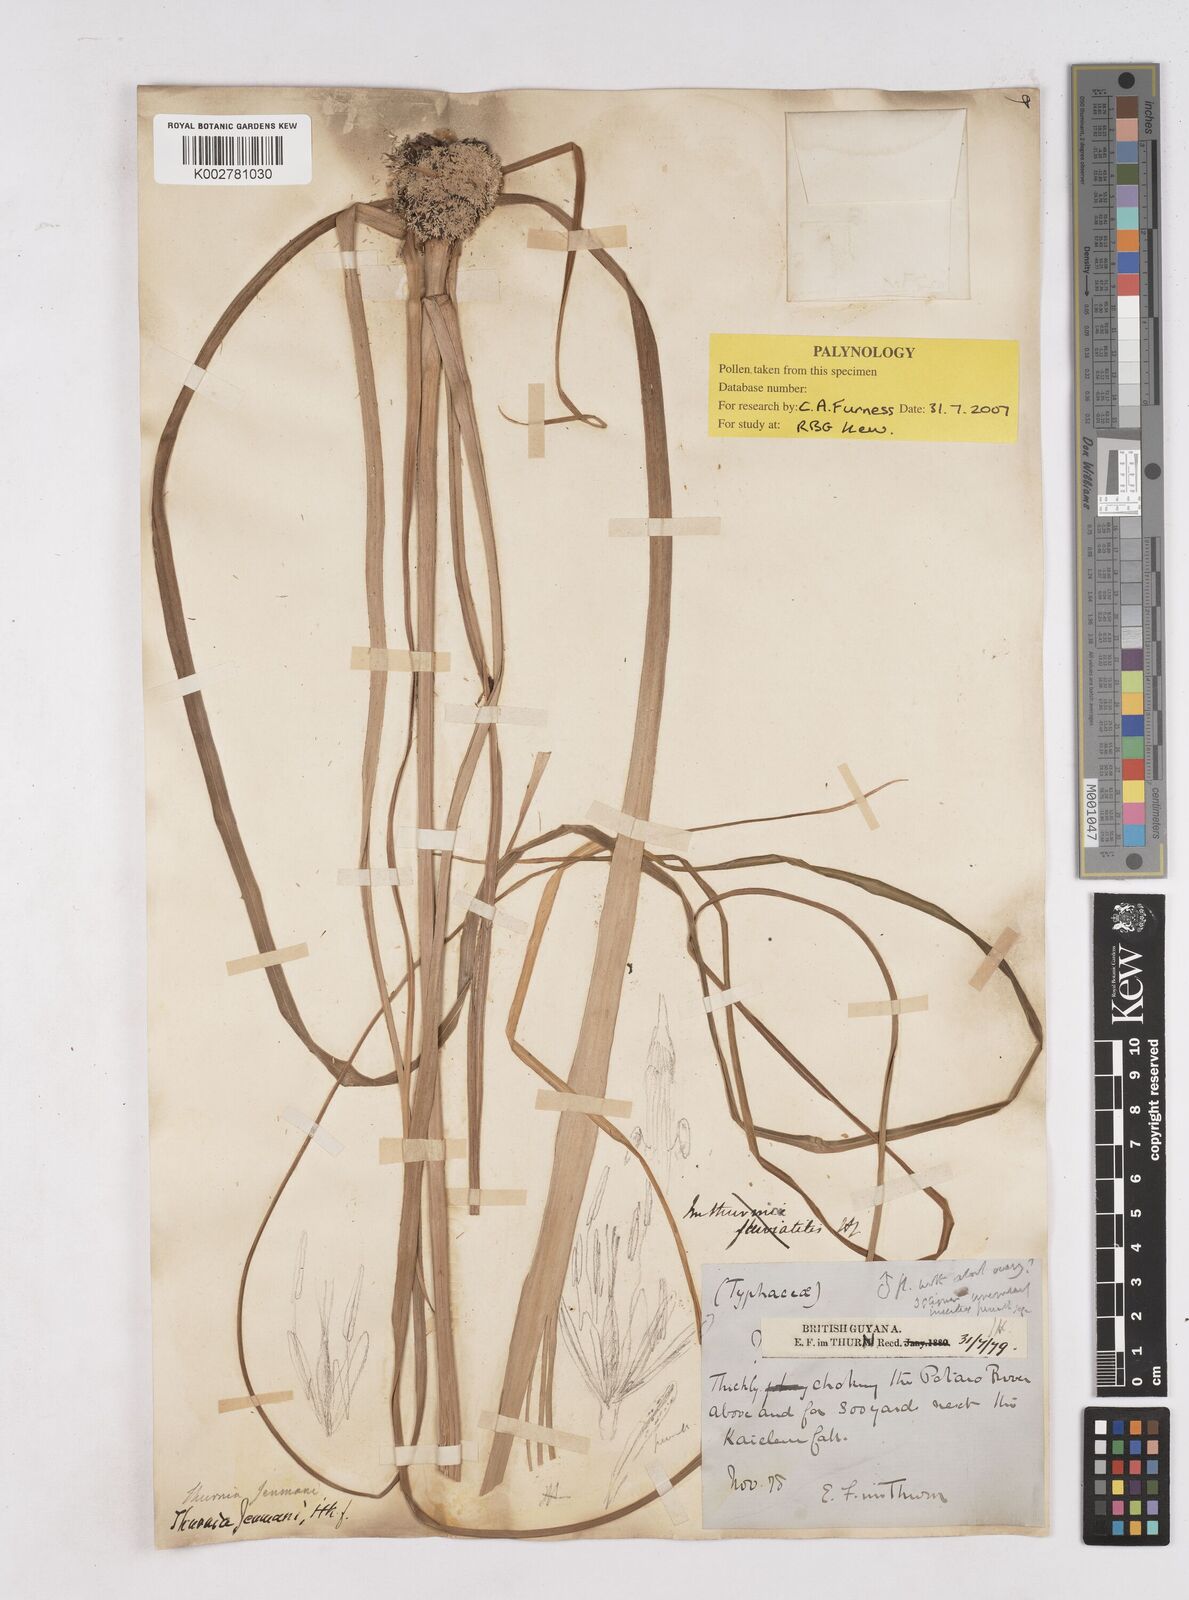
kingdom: Plantae
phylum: Tracheophyta
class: Liliopsida
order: Poales
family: Thurniaceae
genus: Thurnia
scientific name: Thurnia jenmanii
